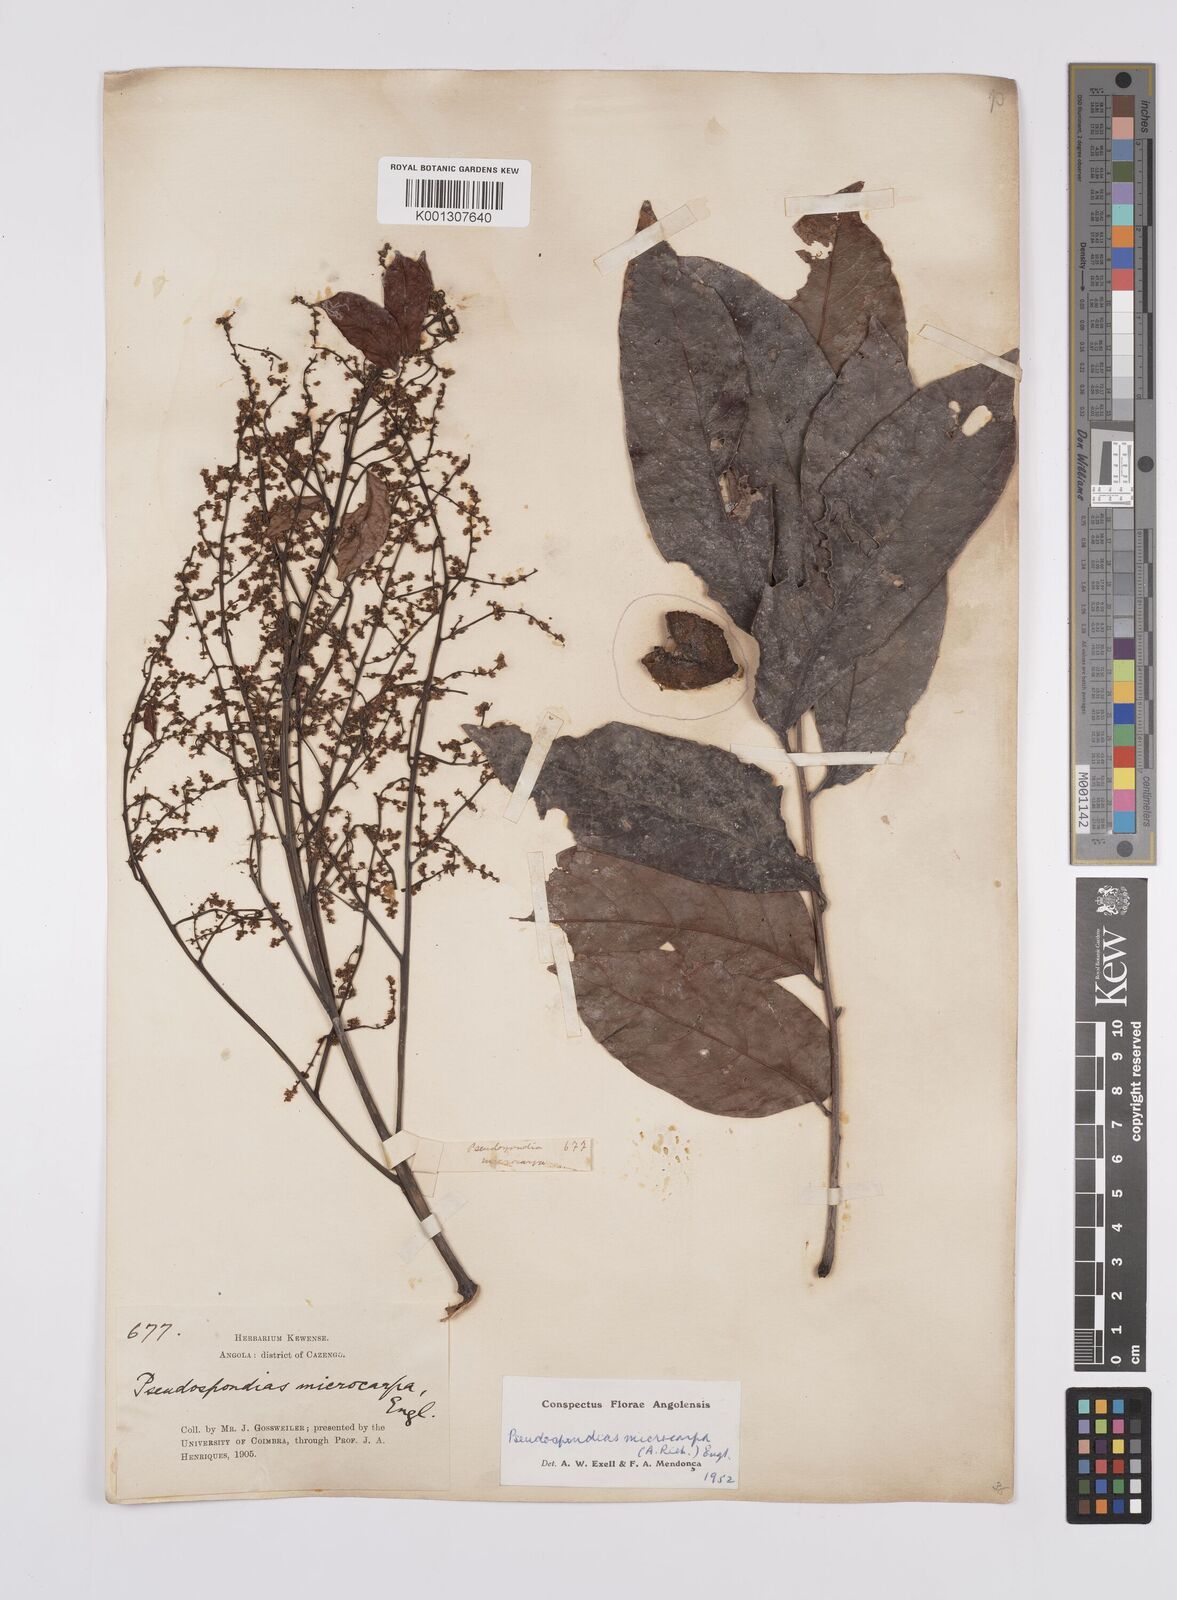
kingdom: Plantae
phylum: Tracheophyta
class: Magnoliopsida
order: Sapindales
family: Anacardiaceae
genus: Pseudospondias
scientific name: Pseudospondias microcarpa
